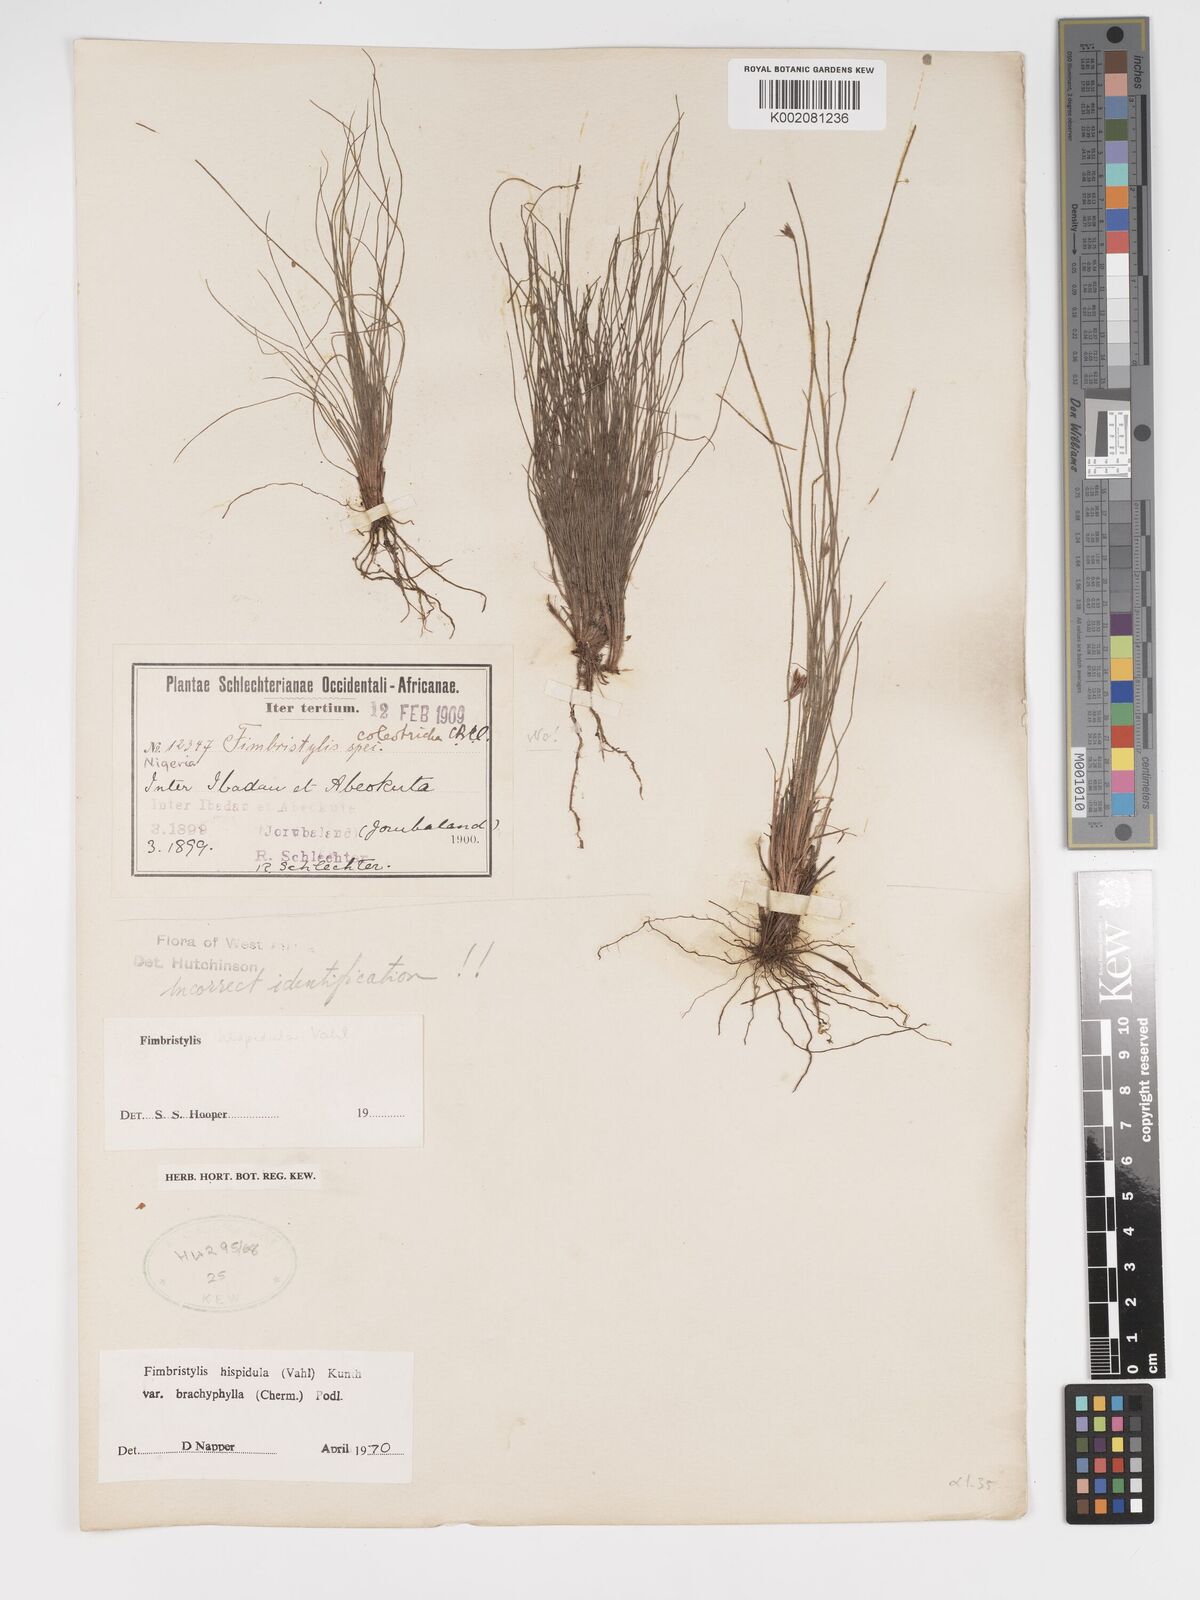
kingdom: Plantae
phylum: Tracheophyta
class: Liliopsida
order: Poales
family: Cyperaceae
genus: Bulbostylis
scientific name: Bulbostylis hispidula
